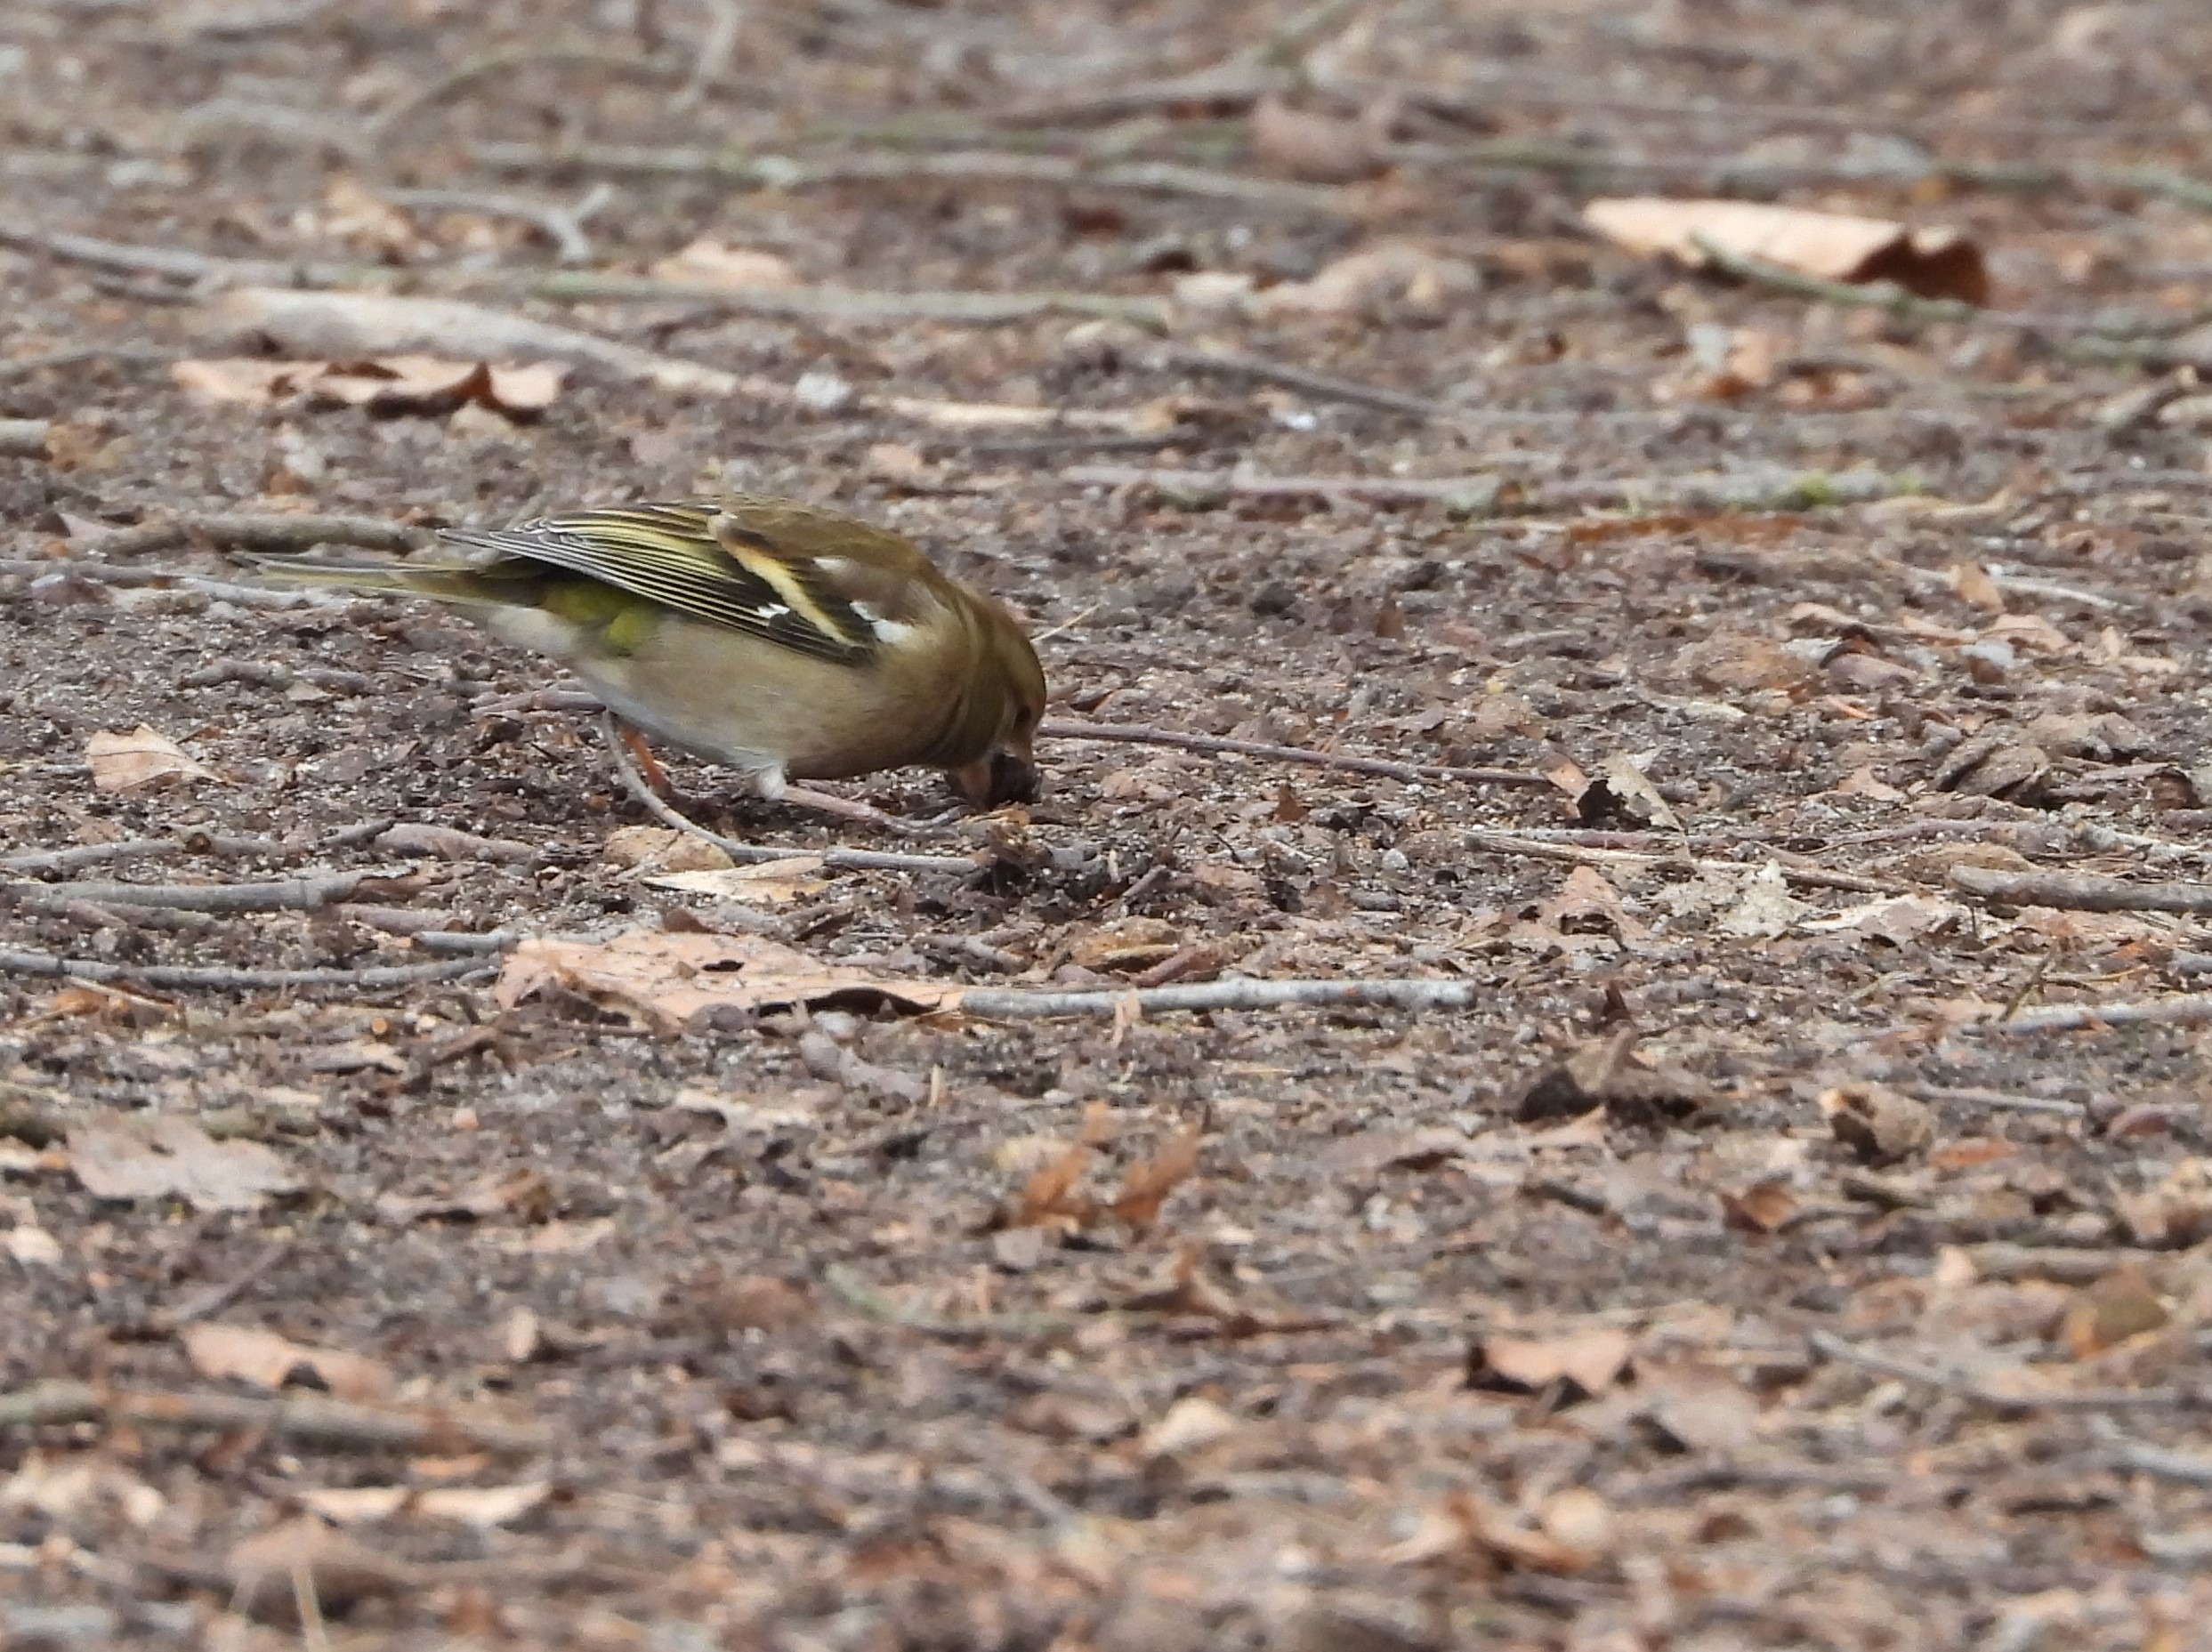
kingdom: Animalia
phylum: Chordata
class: Aves
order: Passeriformes
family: Fringillidae
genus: Fringilla
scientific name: Fringilla coelebs
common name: Bogfinke
